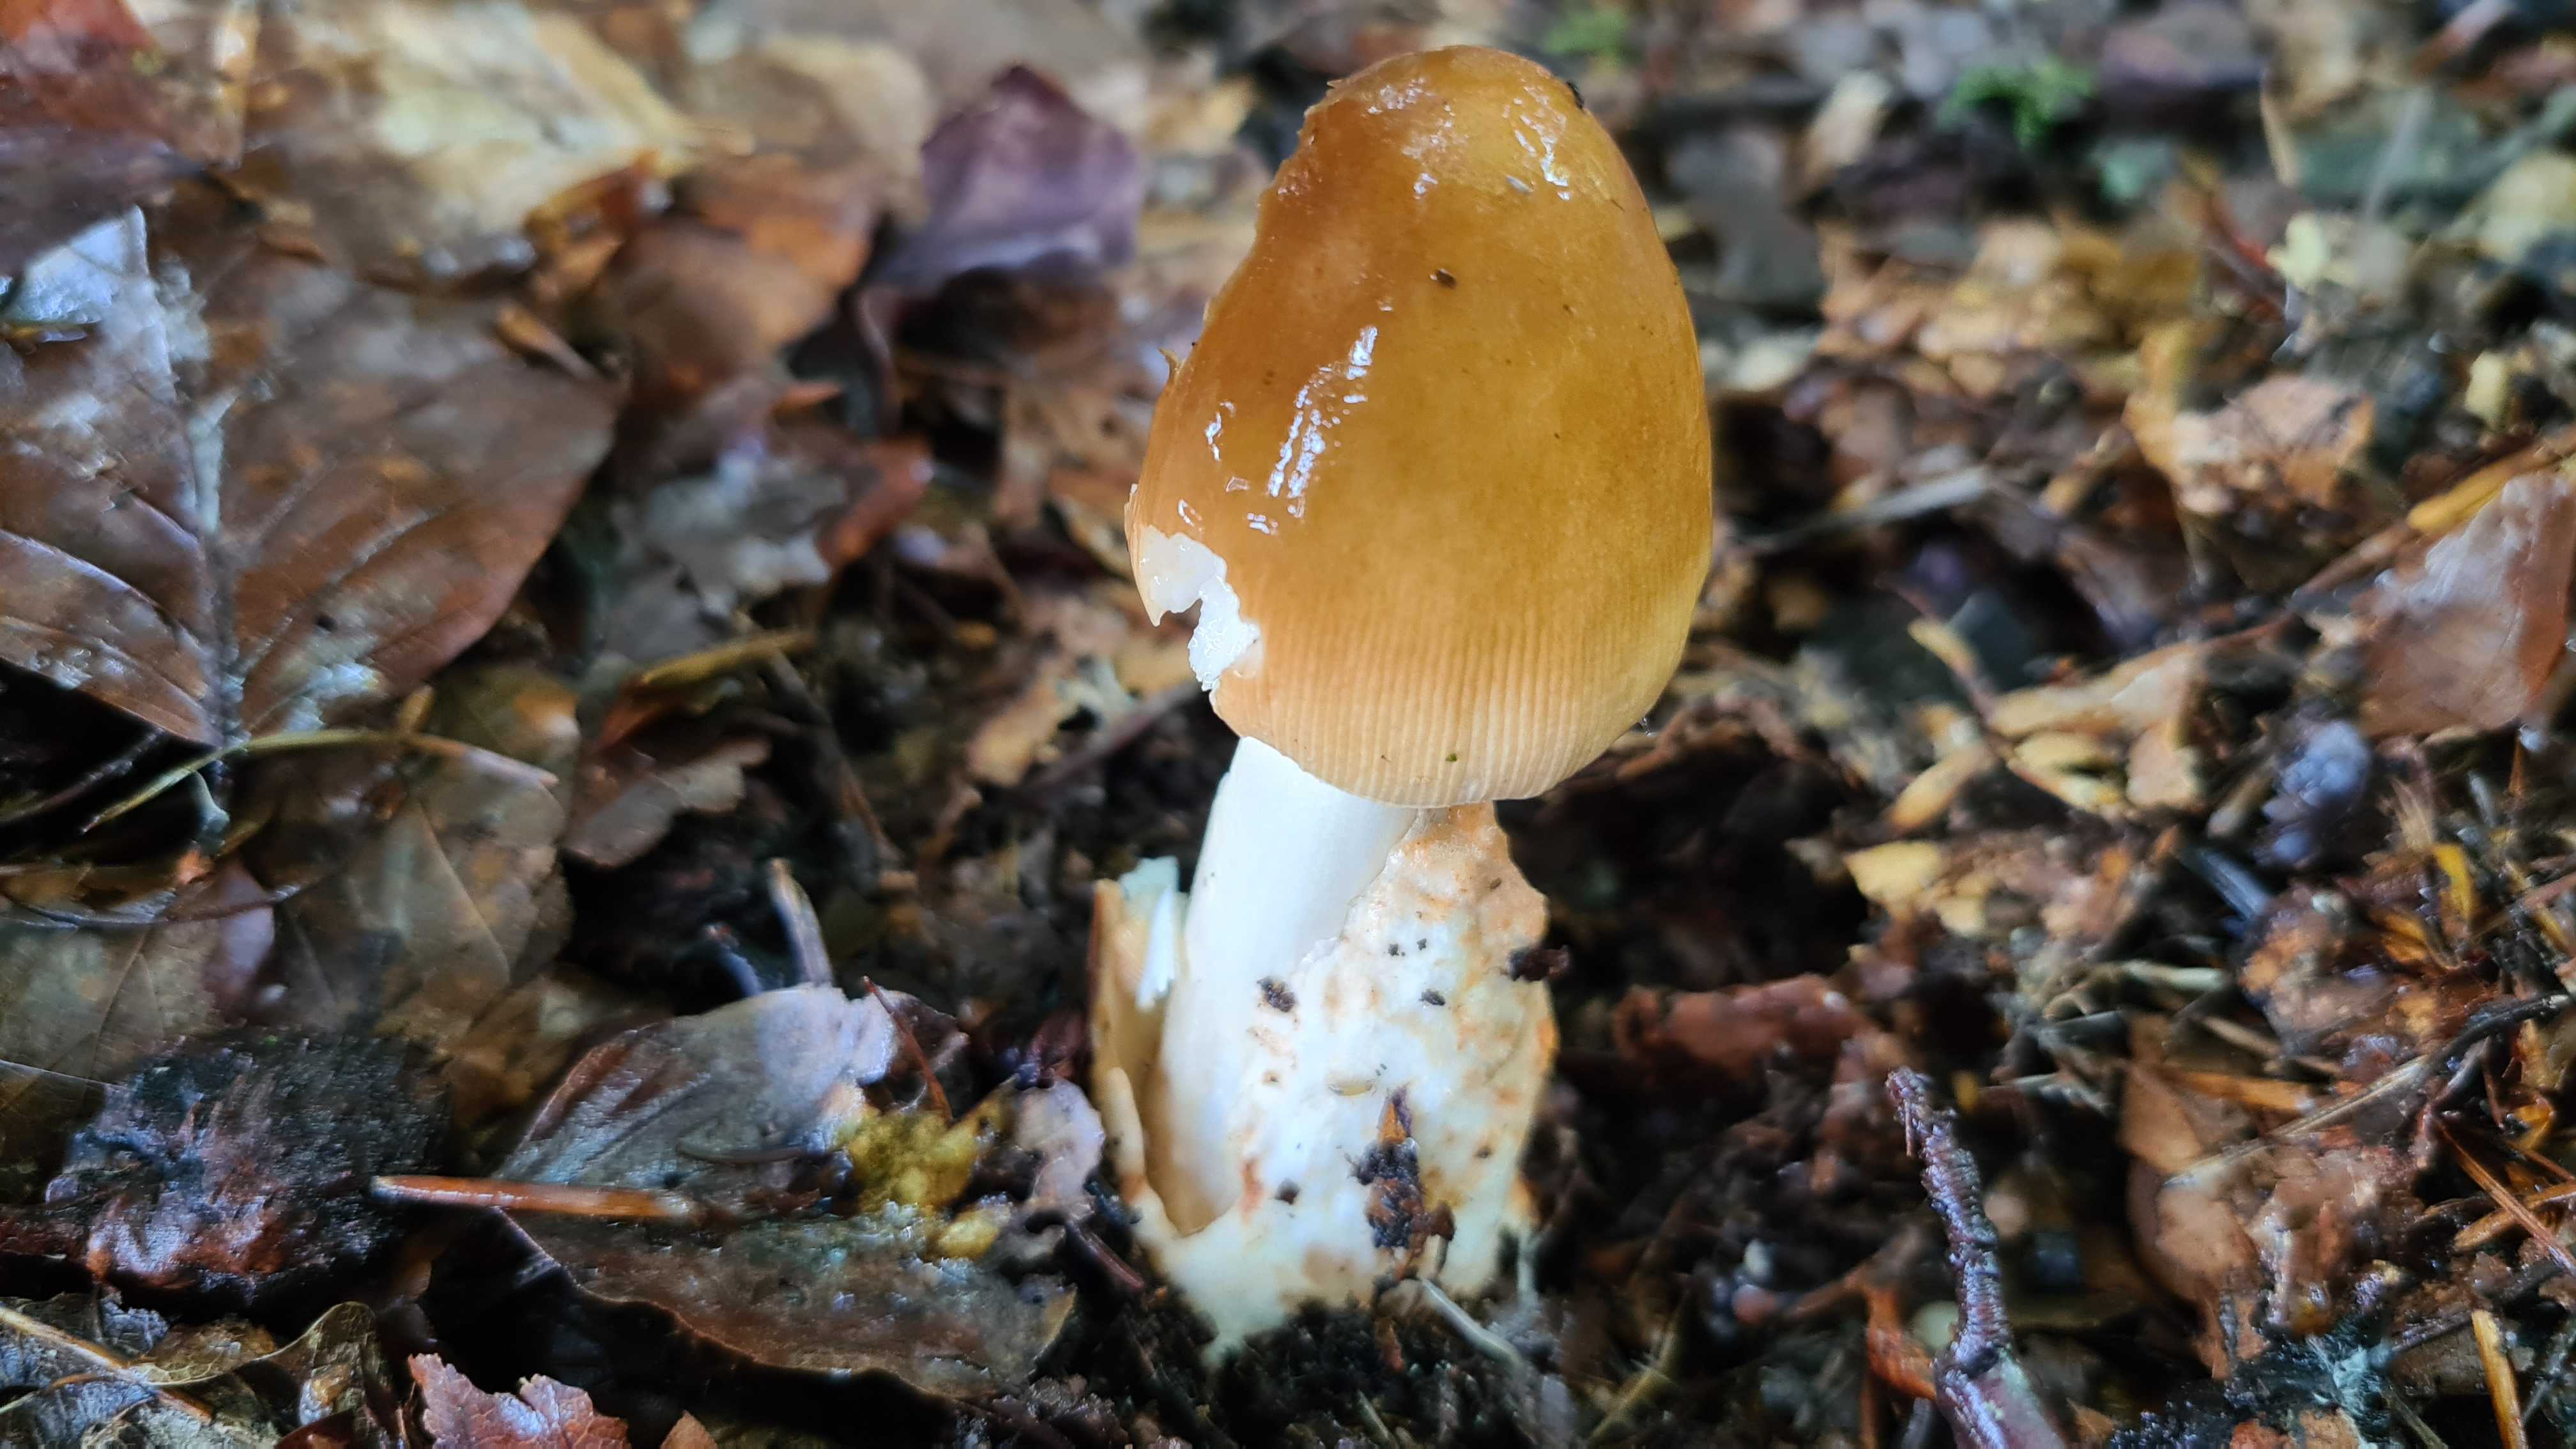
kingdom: Fungi
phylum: Basidiomycota
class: Agaricomycetes
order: Agaricales
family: Amanitaceae
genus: Amanita
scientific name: Amanita fulva
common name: brun kam-fluesvamp
